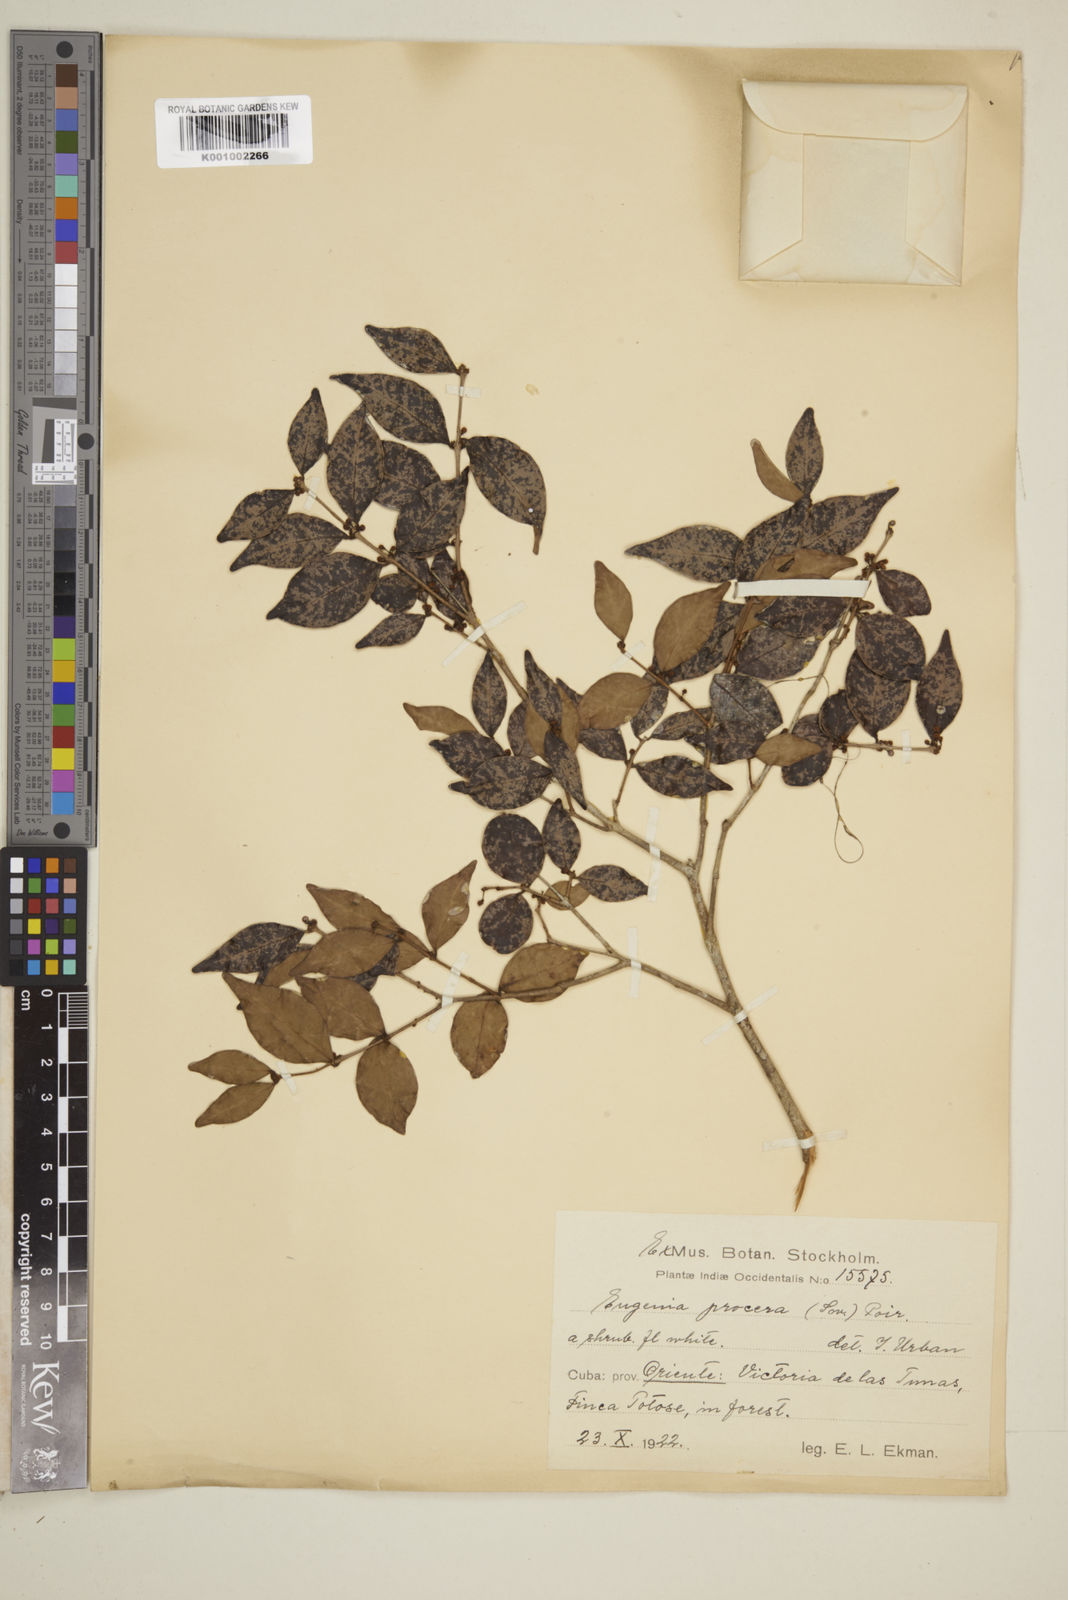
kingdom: Plantae
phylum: Tracheophyta
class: Magnoliopsida
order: Myrtales
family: Myrtaceae
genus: Eugenia
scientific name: Eugenia procera
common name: Bastard blackberry
